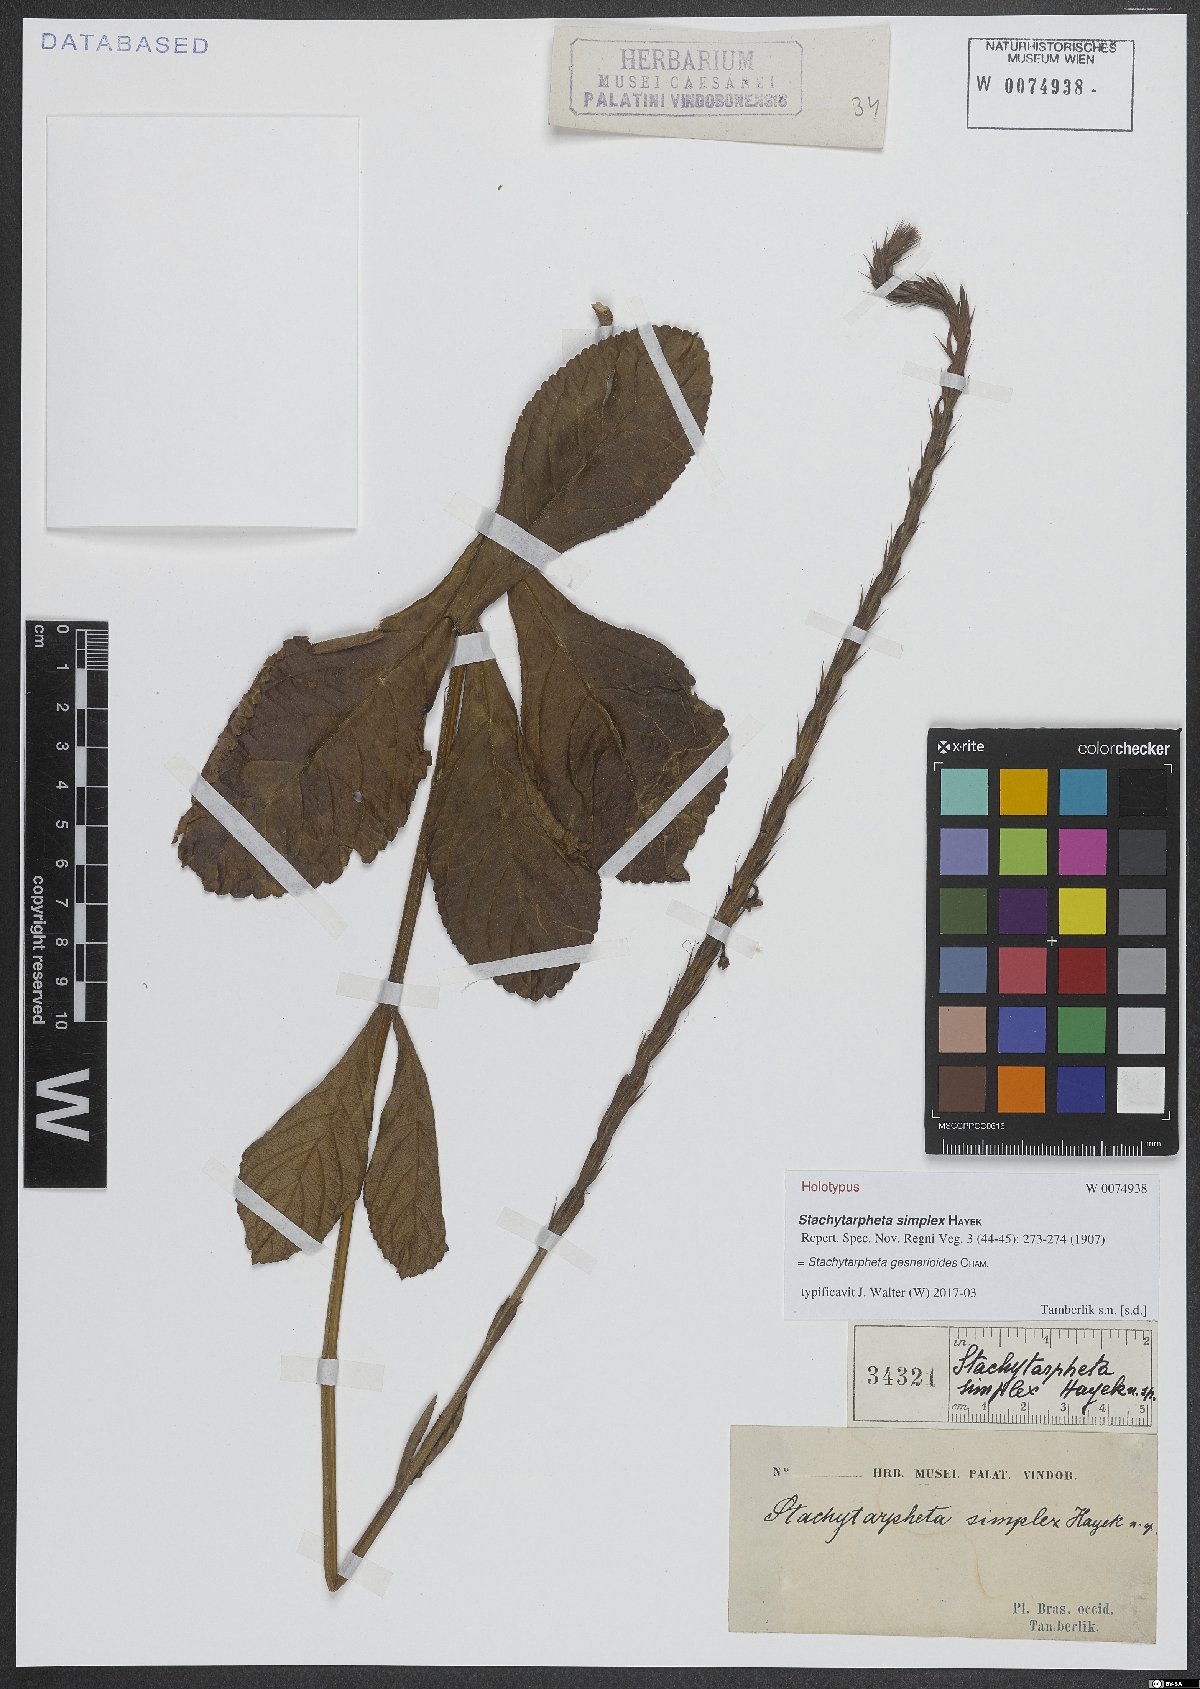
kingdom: Plantae
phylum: Tracheophyta
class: Magnoliopsida
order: Lamiales
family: Verbenaceae
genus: Stachytarpheta
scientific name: Stachytarpheta gesnerioides
